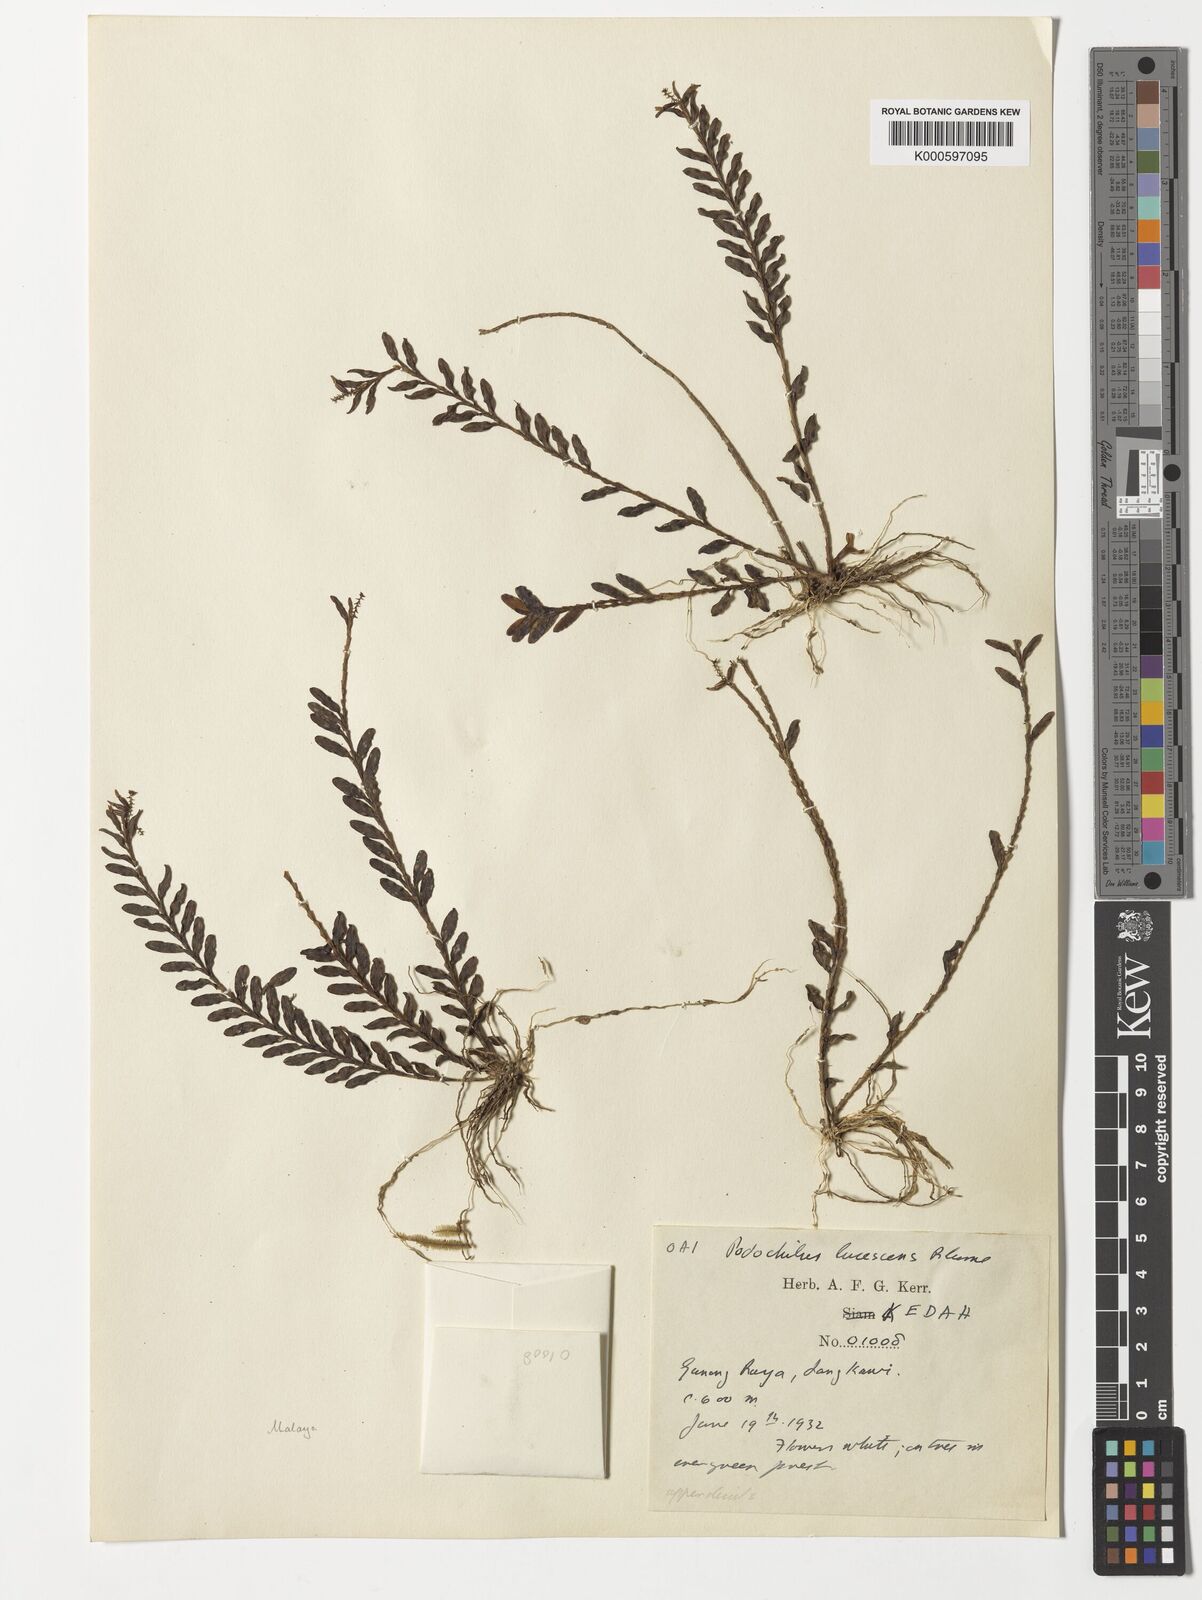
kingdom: Plantae
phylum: Tracheophyta
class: Liliopsida
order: Asparagales
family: Orchidaceae
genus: Podochilus
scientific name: Podochilus lucescens
